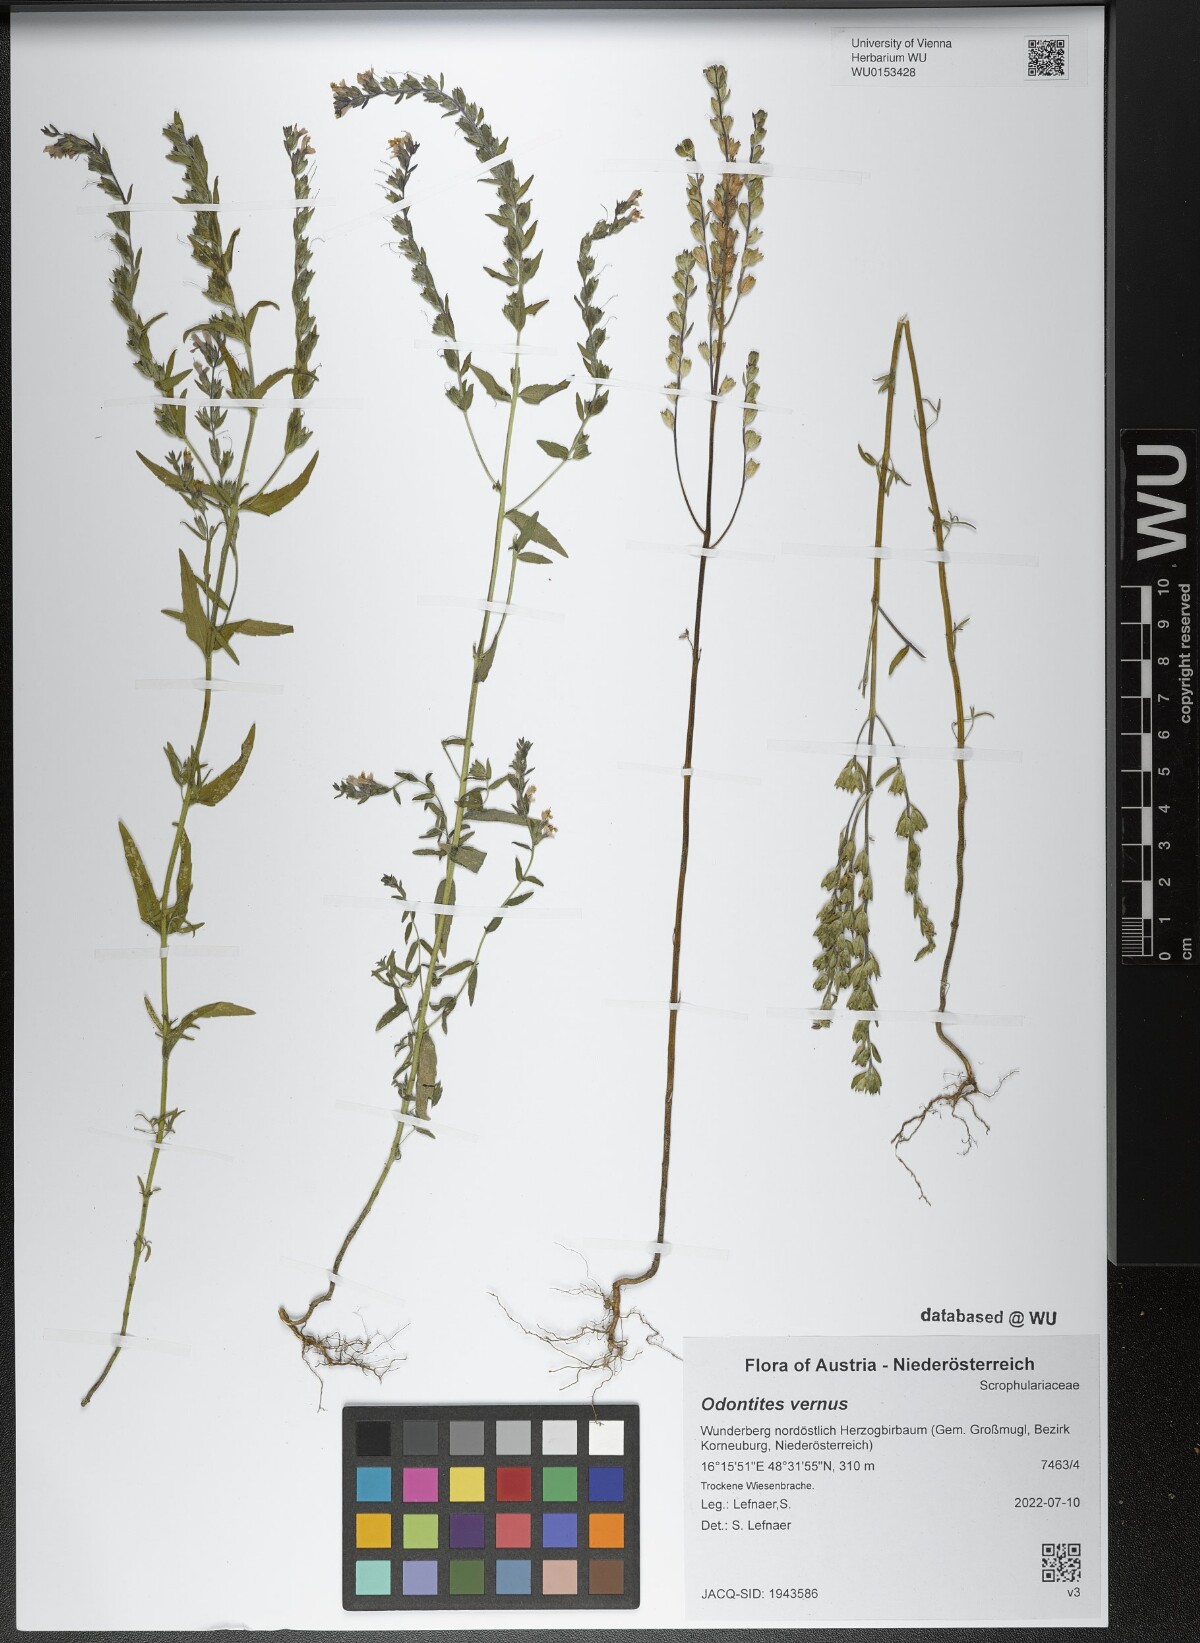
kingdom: Plantae
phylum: Tracheophyta
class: Magnoliopsida
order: Lamiales
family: Orobanchaceae
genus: Odontites
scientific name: Odontites vernus
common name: Red bartsia
